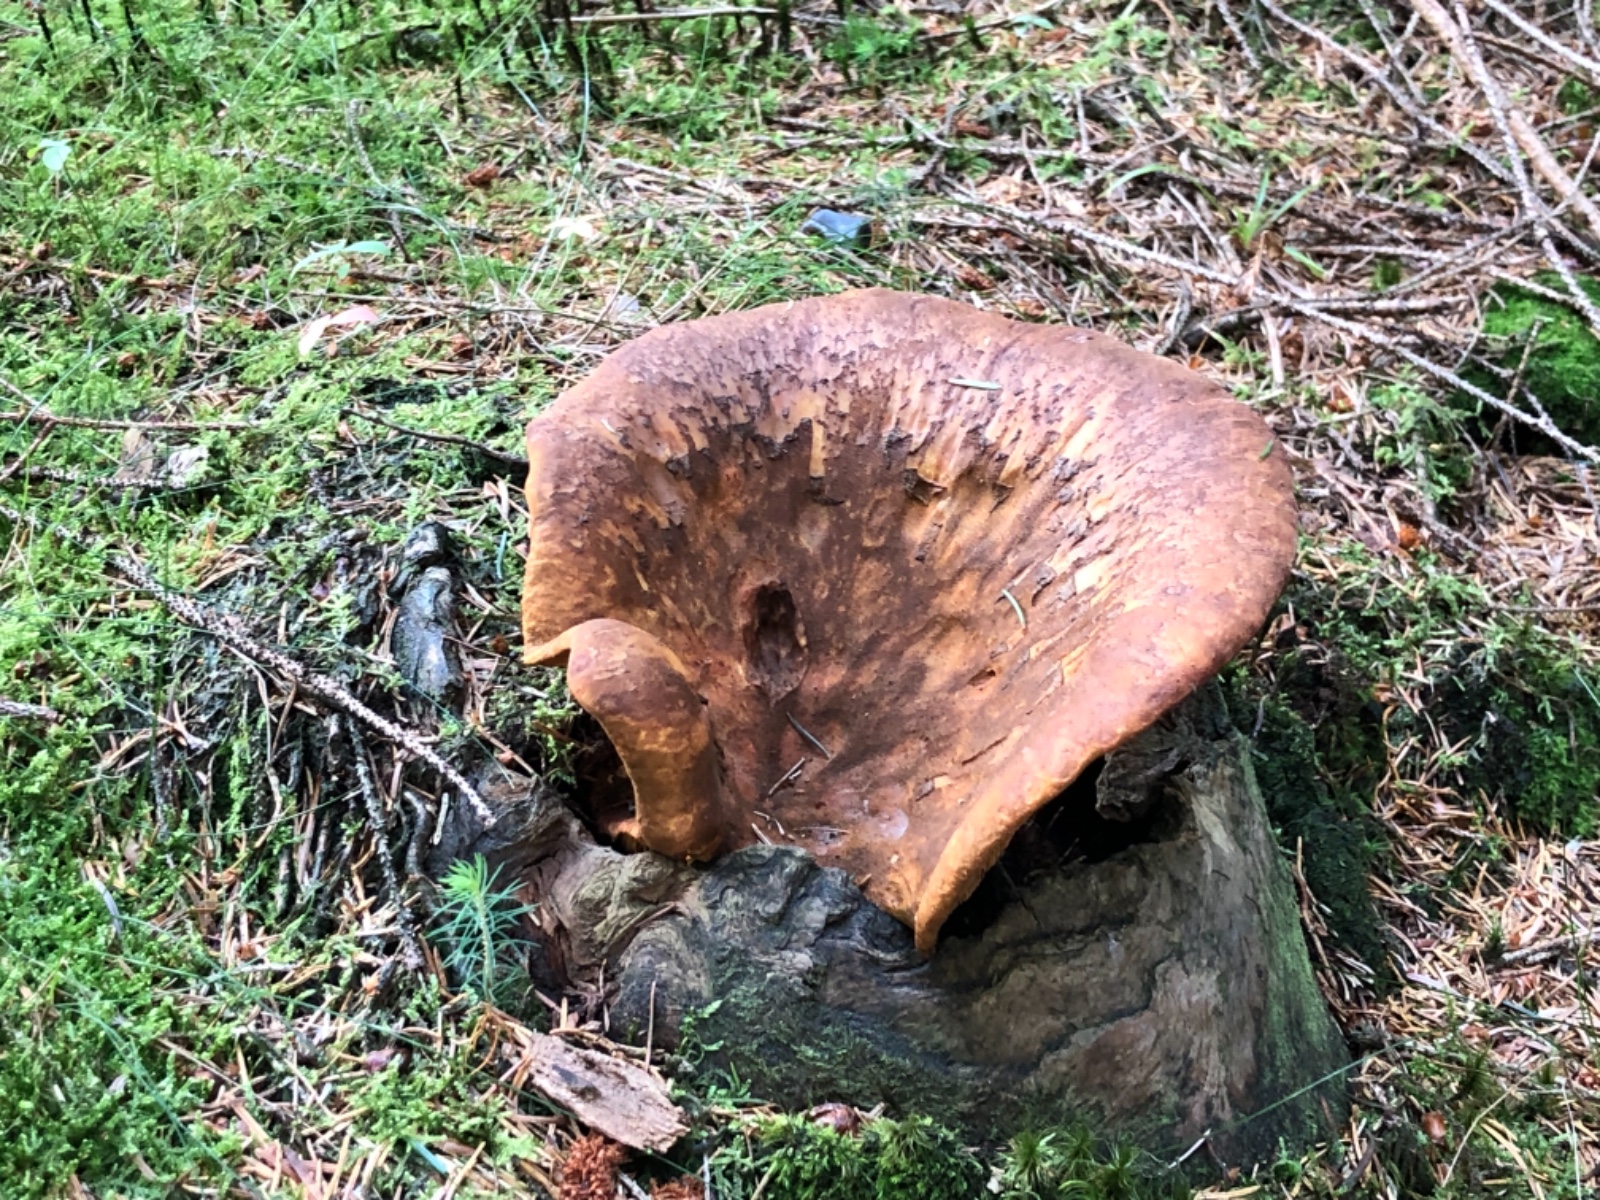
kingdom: Fungi
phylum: Basidiomycota
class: Agaricomycetes
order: Boletales
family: Tapinellaceae
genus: Tapinella
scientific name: Tapinella atrotomentosa
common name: sortfiltet viftesvamp
